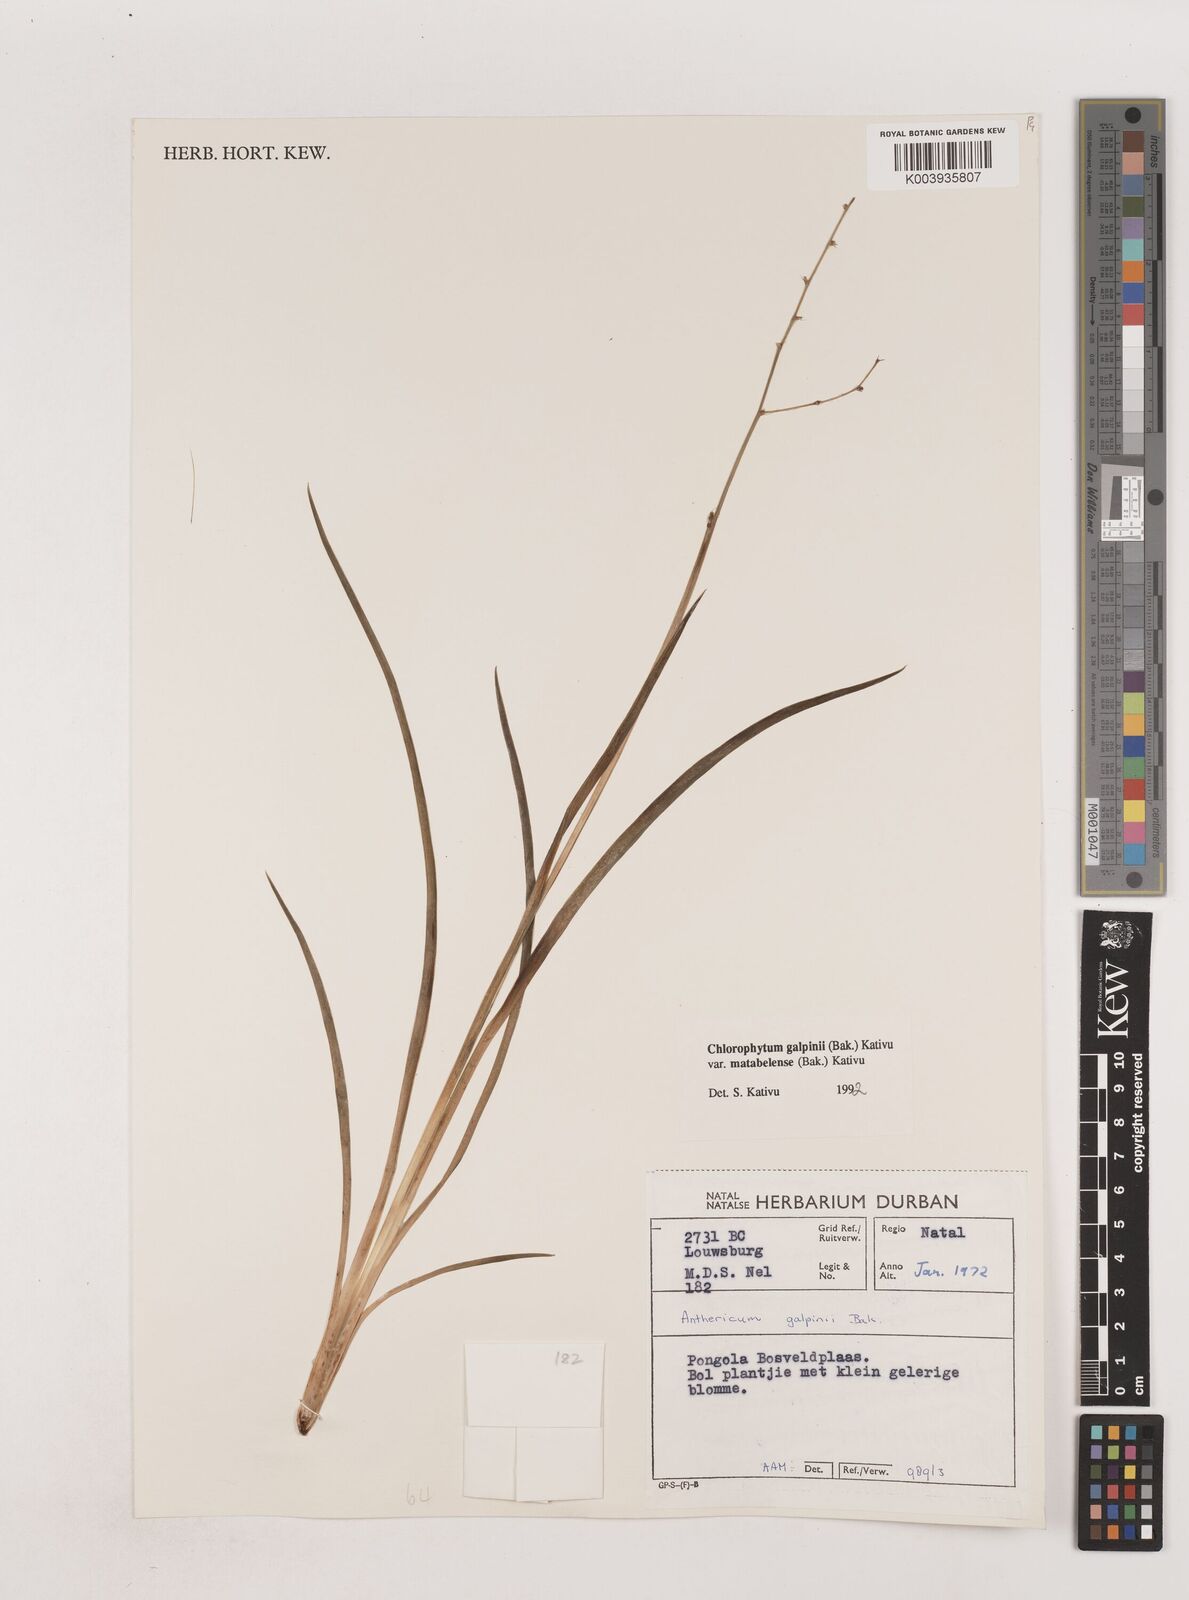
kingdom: Plantae
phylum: Tracheophyta
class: Liliopsida
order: Asparagales
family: Asparagaceae
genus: Chlorophytum
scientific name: Chlorophytum galpinii
